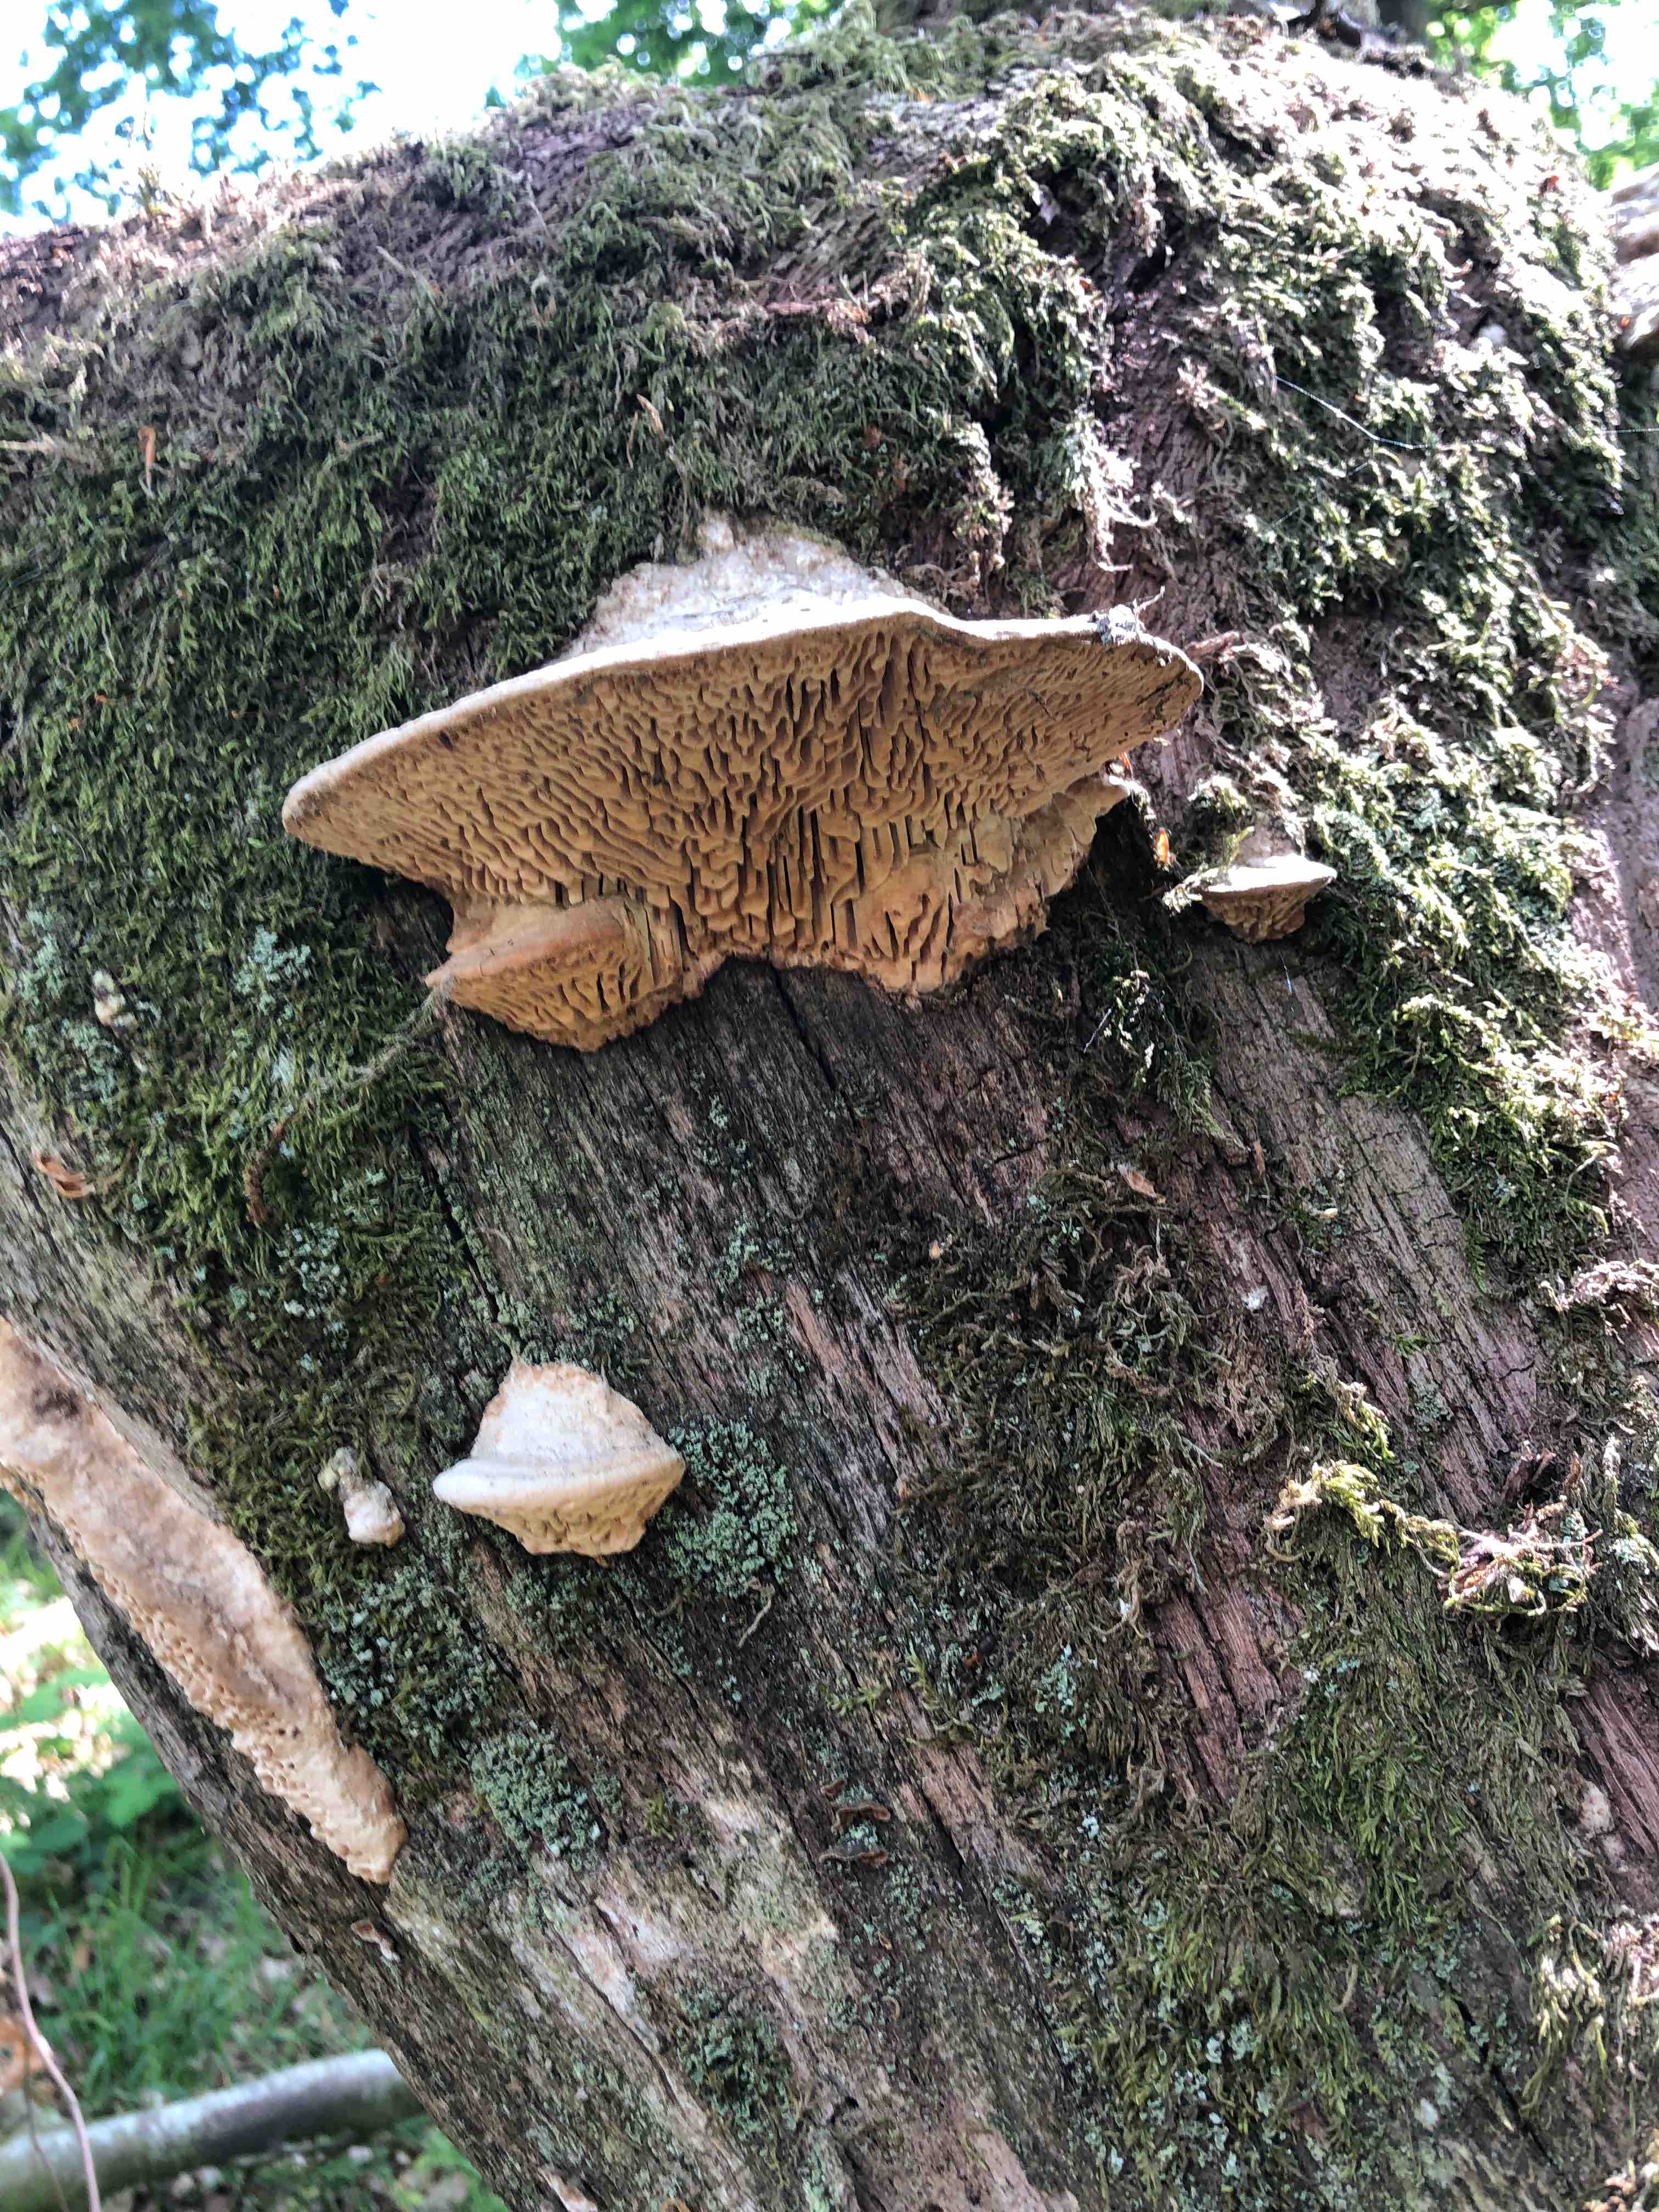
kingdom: Fungi
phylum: Basidiomycota
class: Agaricomycetes
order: Polyporales
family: Fomitopsidaceae
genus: Daedalea
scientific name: Daedalea quercina
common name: ege-labyrintsvamp
